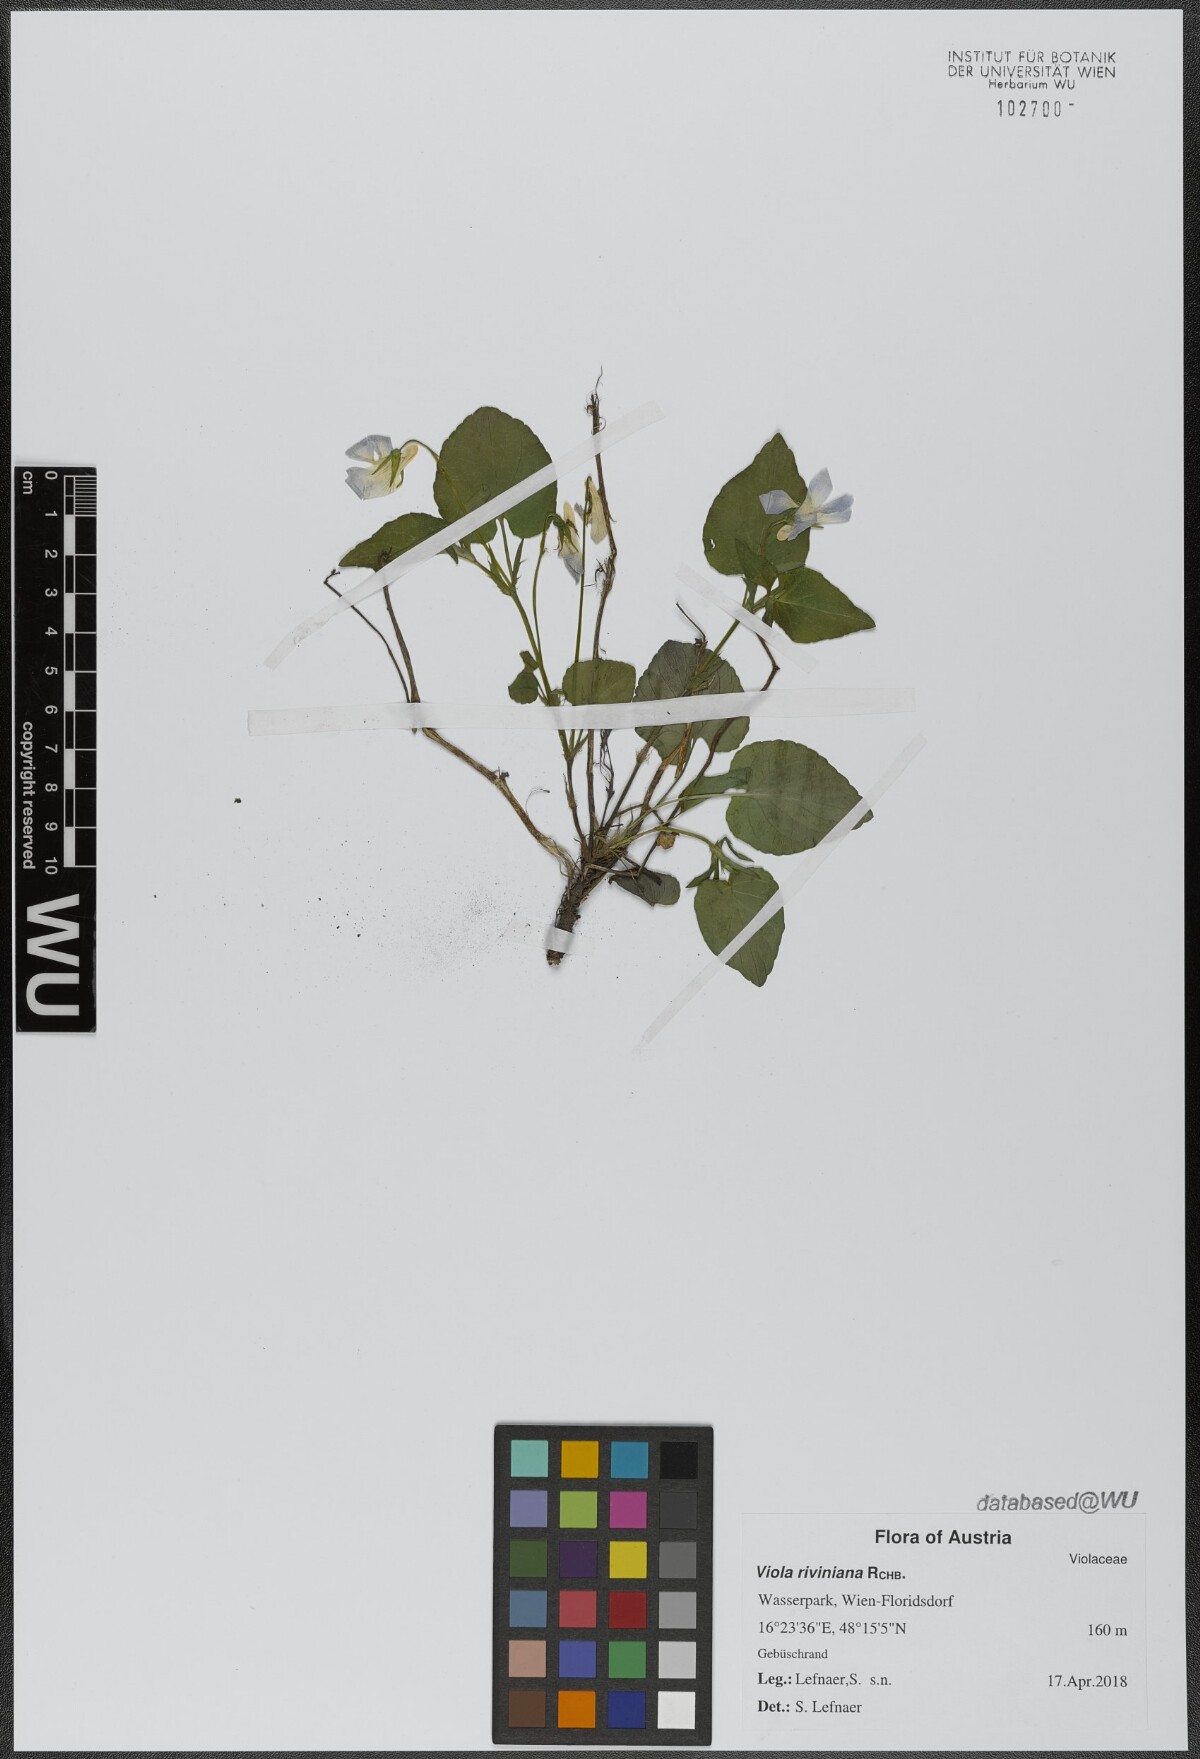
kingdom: Plantae
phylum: Tracheophyta
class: Magnoliopsida
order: Malpighiales
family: Violaceae
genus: Viola
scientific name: Viola riviniana
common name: Common dog-violet
